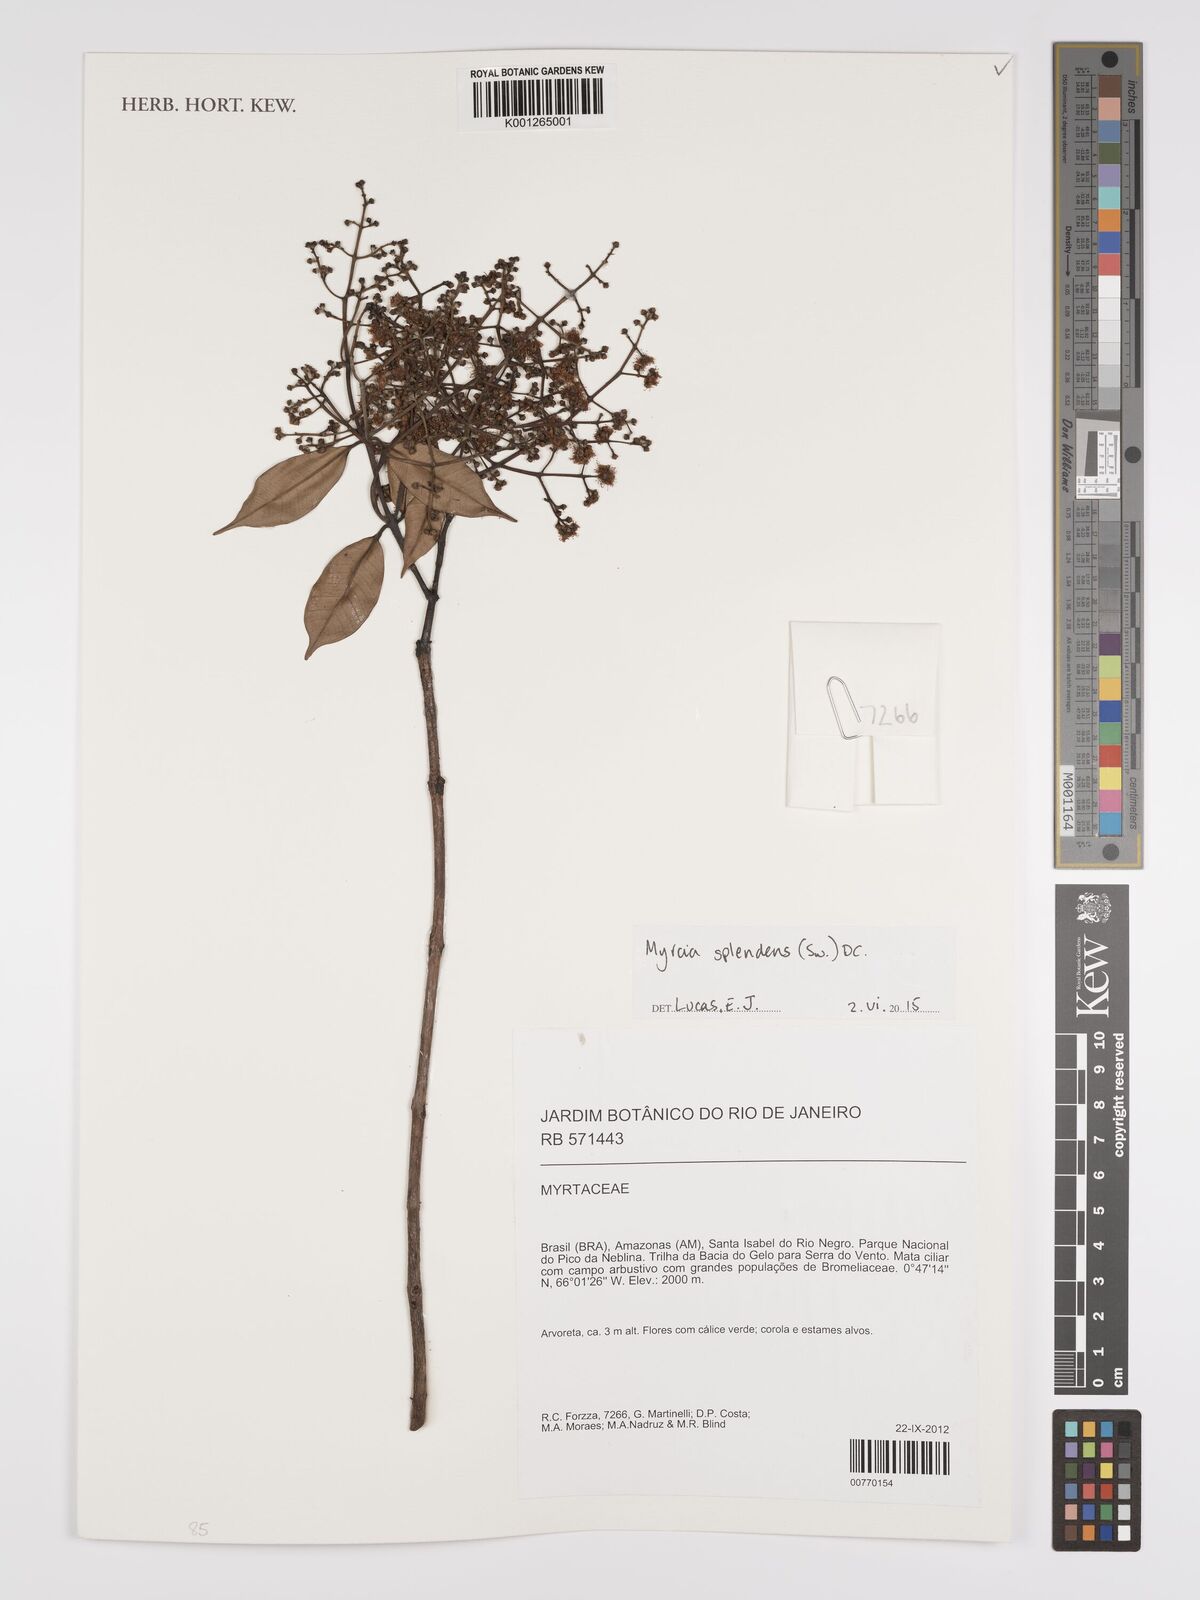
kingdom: Plantae
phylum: Tracheophyta
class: Magnoliopsida
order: Myrtales
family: Myrtaceae
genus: Myrcia
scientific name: Myrcia splendens
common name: Surinam cherry
